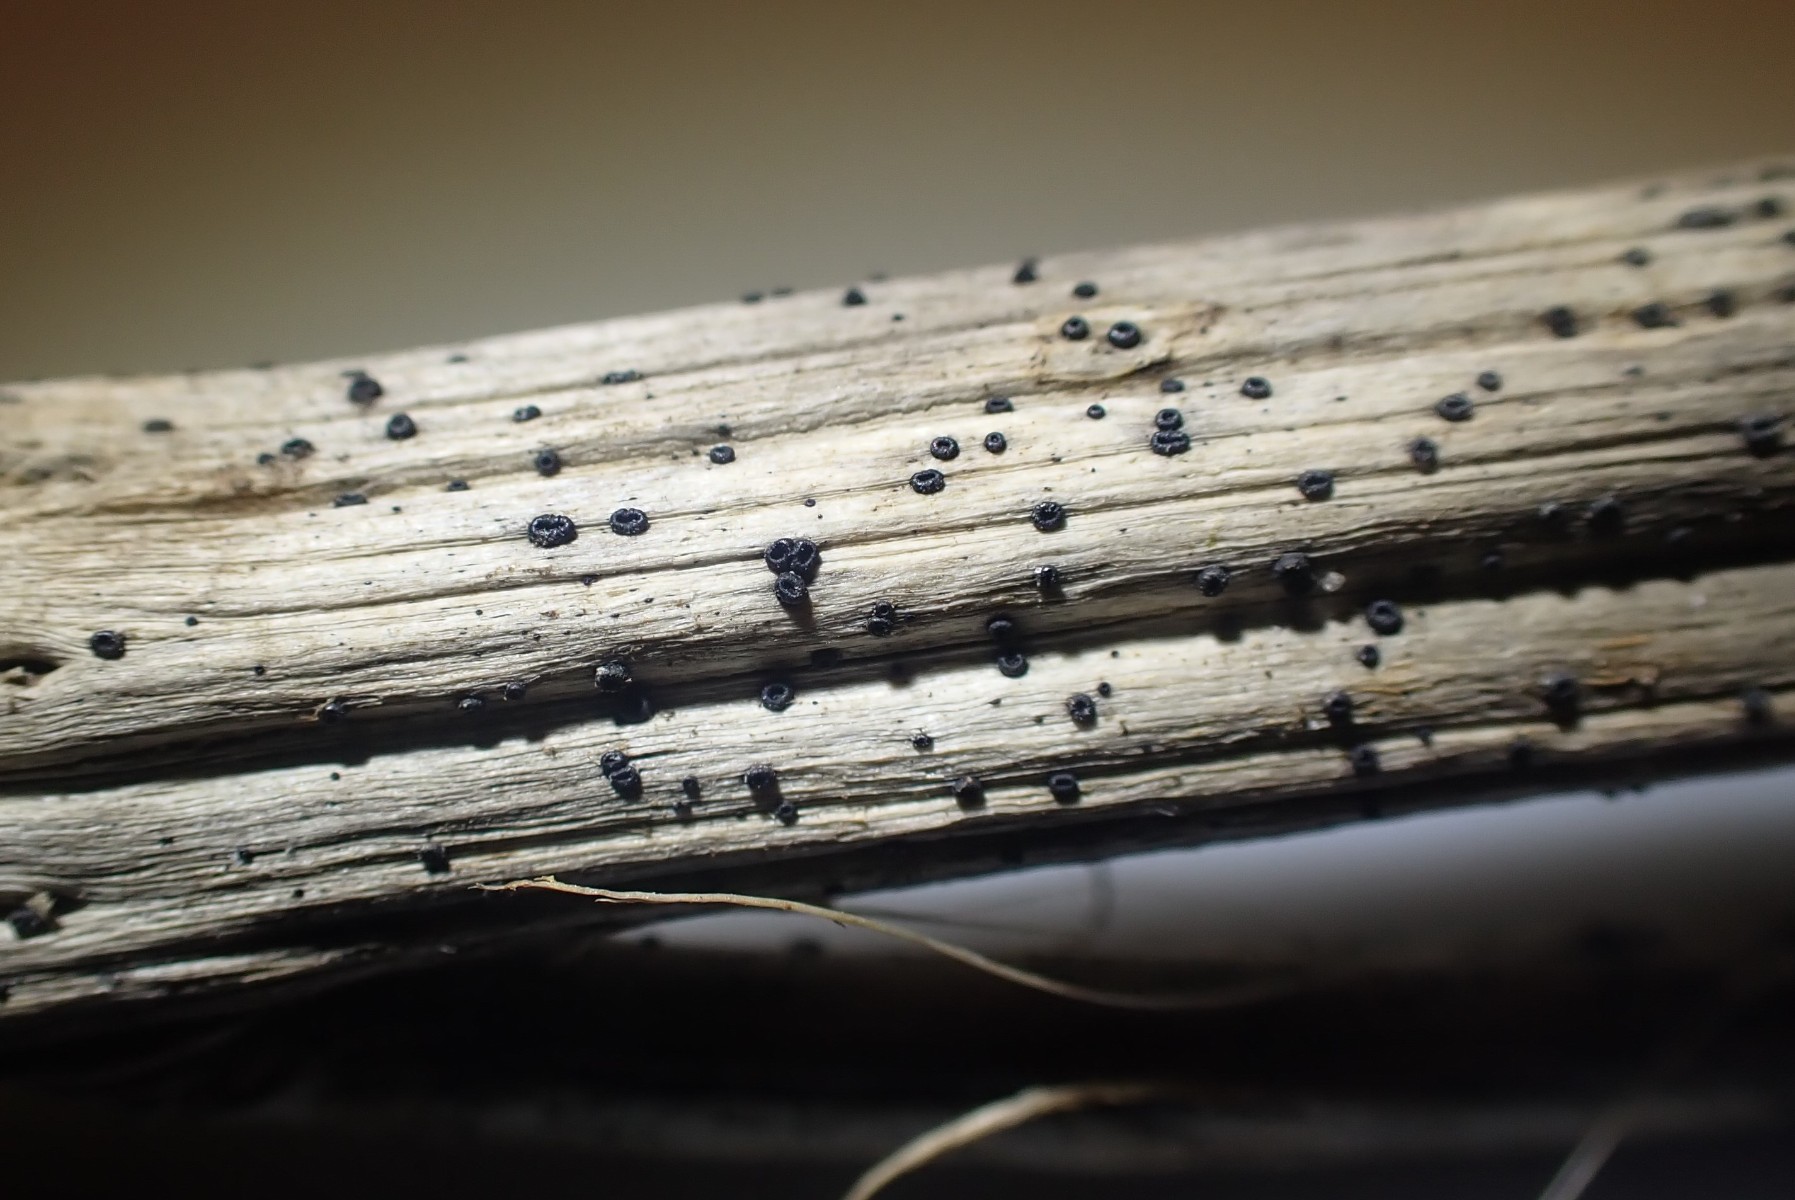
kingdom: Fungi
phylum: Ascomycota
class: Leotiomycetes
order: Helotiales
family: Heterosphaeriaceae
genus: Heterosphaeria
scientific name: Heterosphaeria
